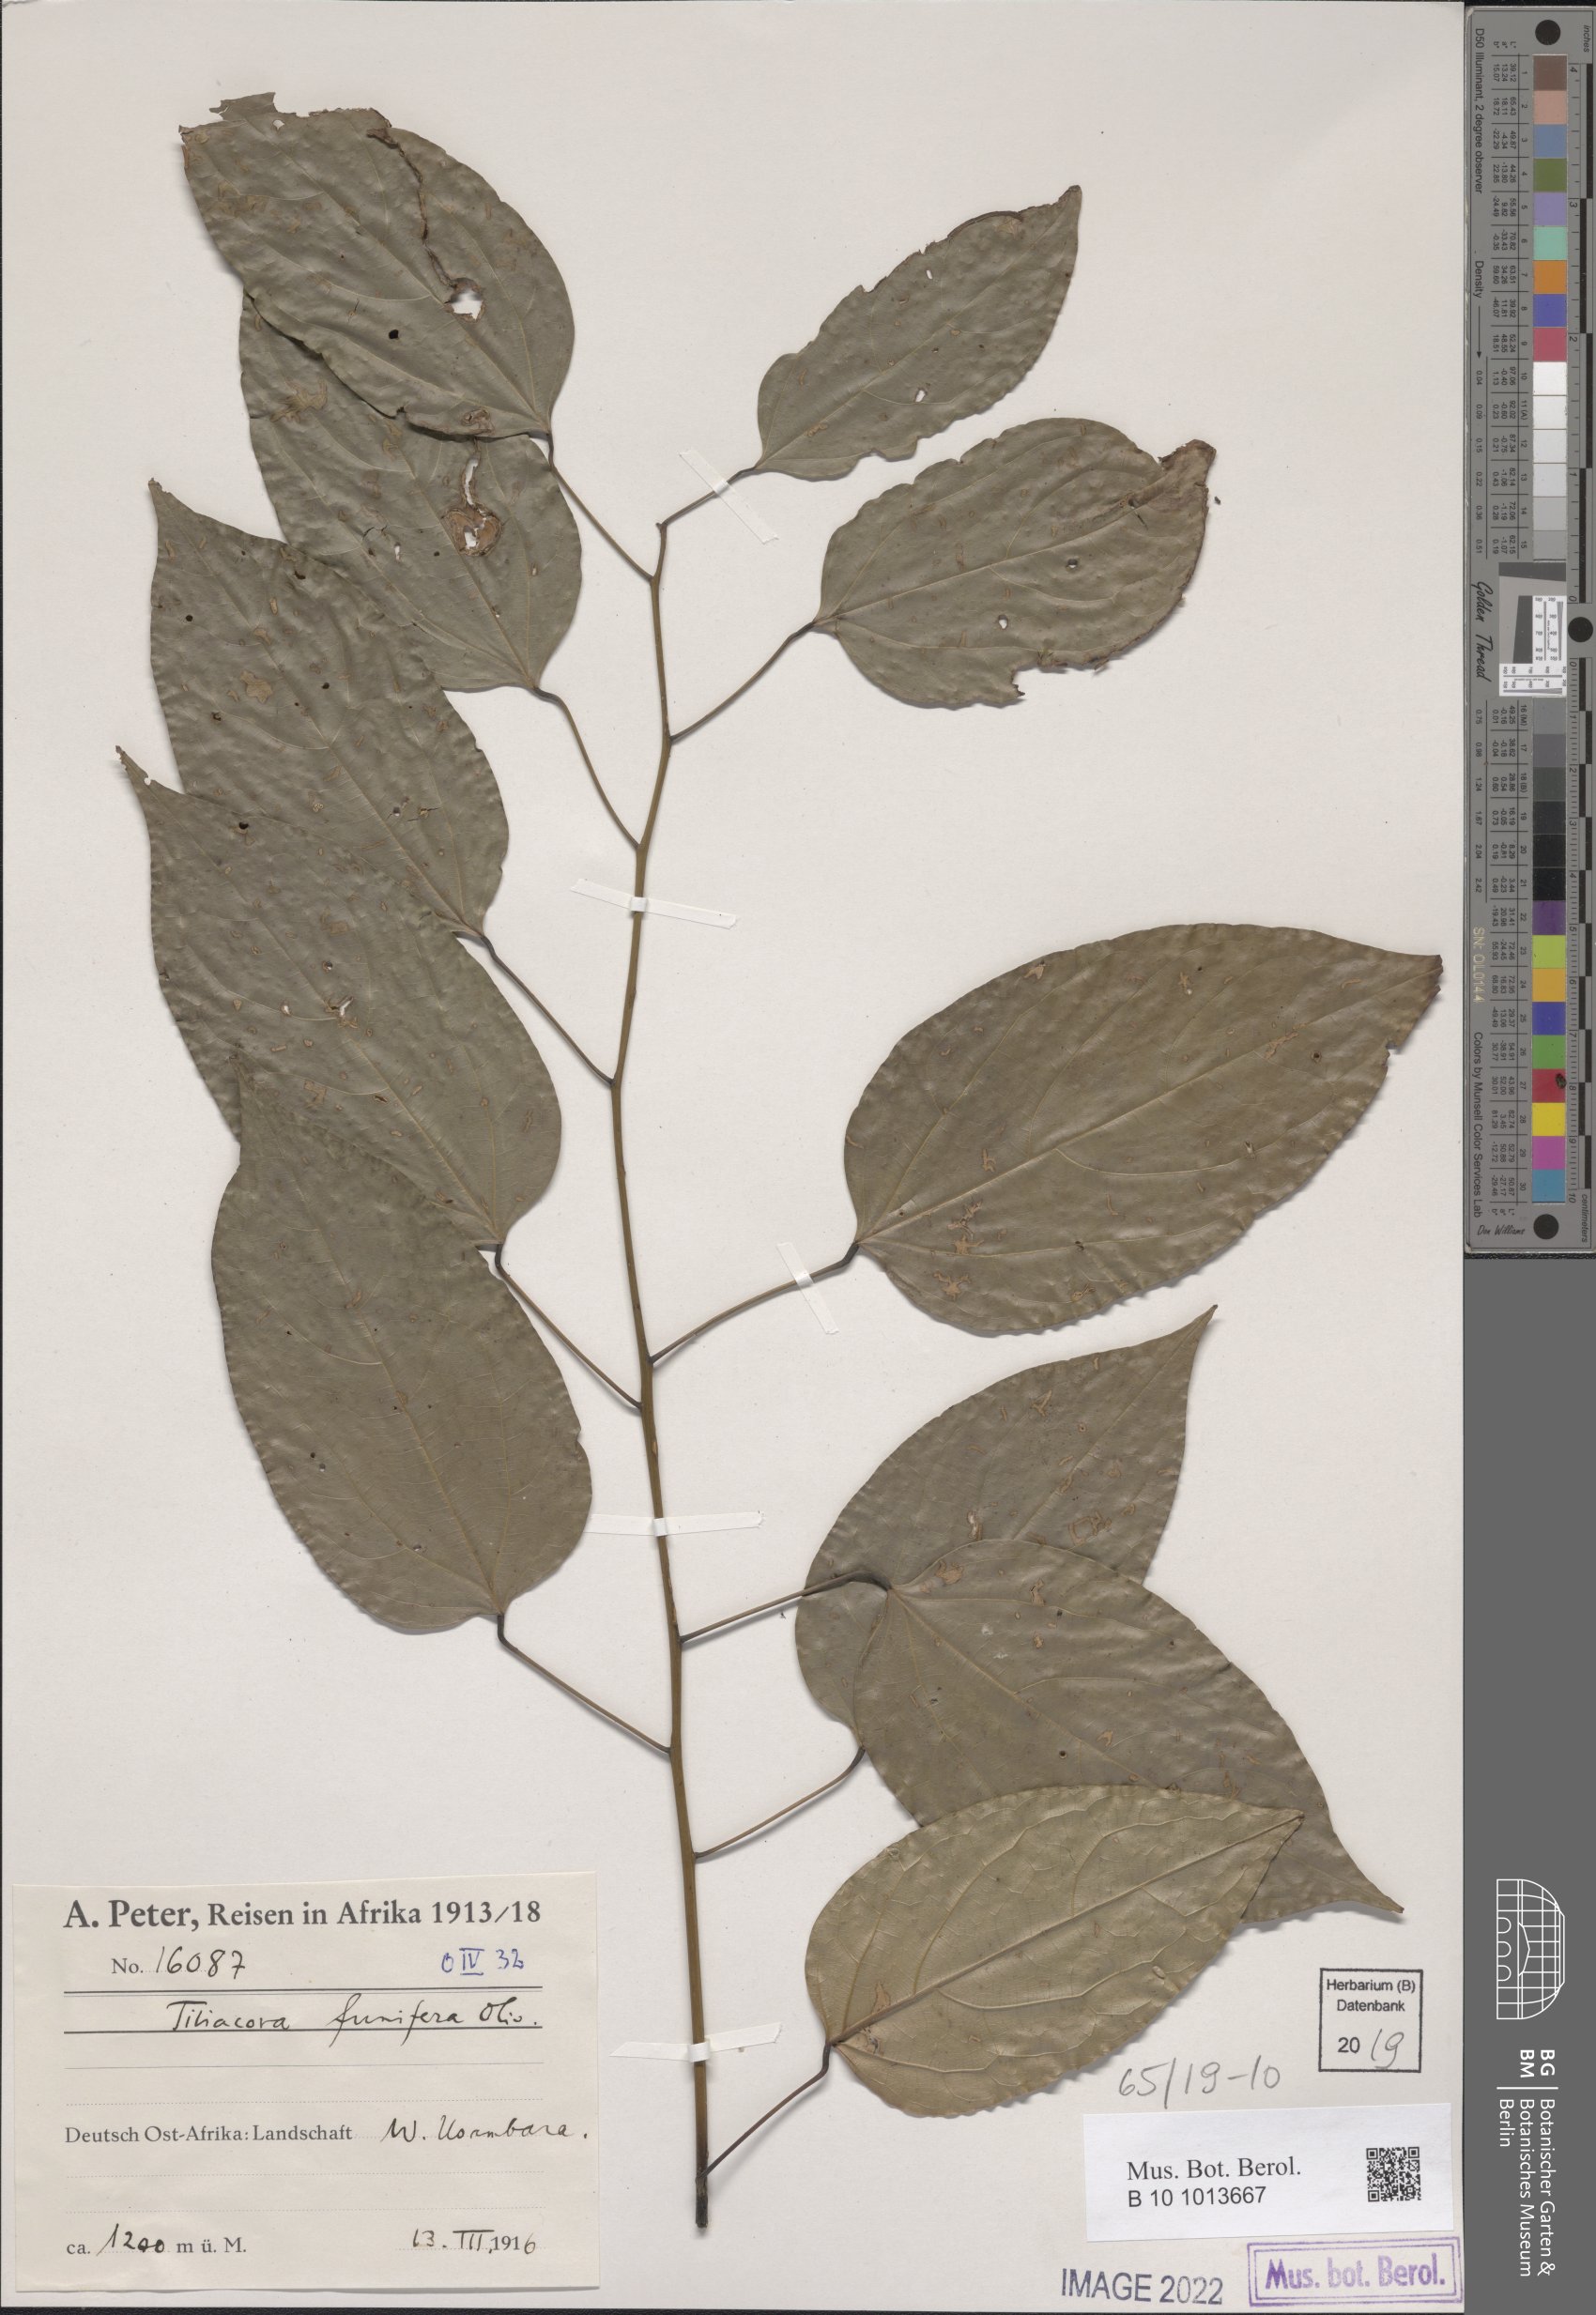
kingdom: Plantae
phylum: Tracheophyta
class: Magnoliopsida
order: Ranunculales
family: Menispermaceae
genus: Tiliacora
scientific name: Tiliacora funifera
